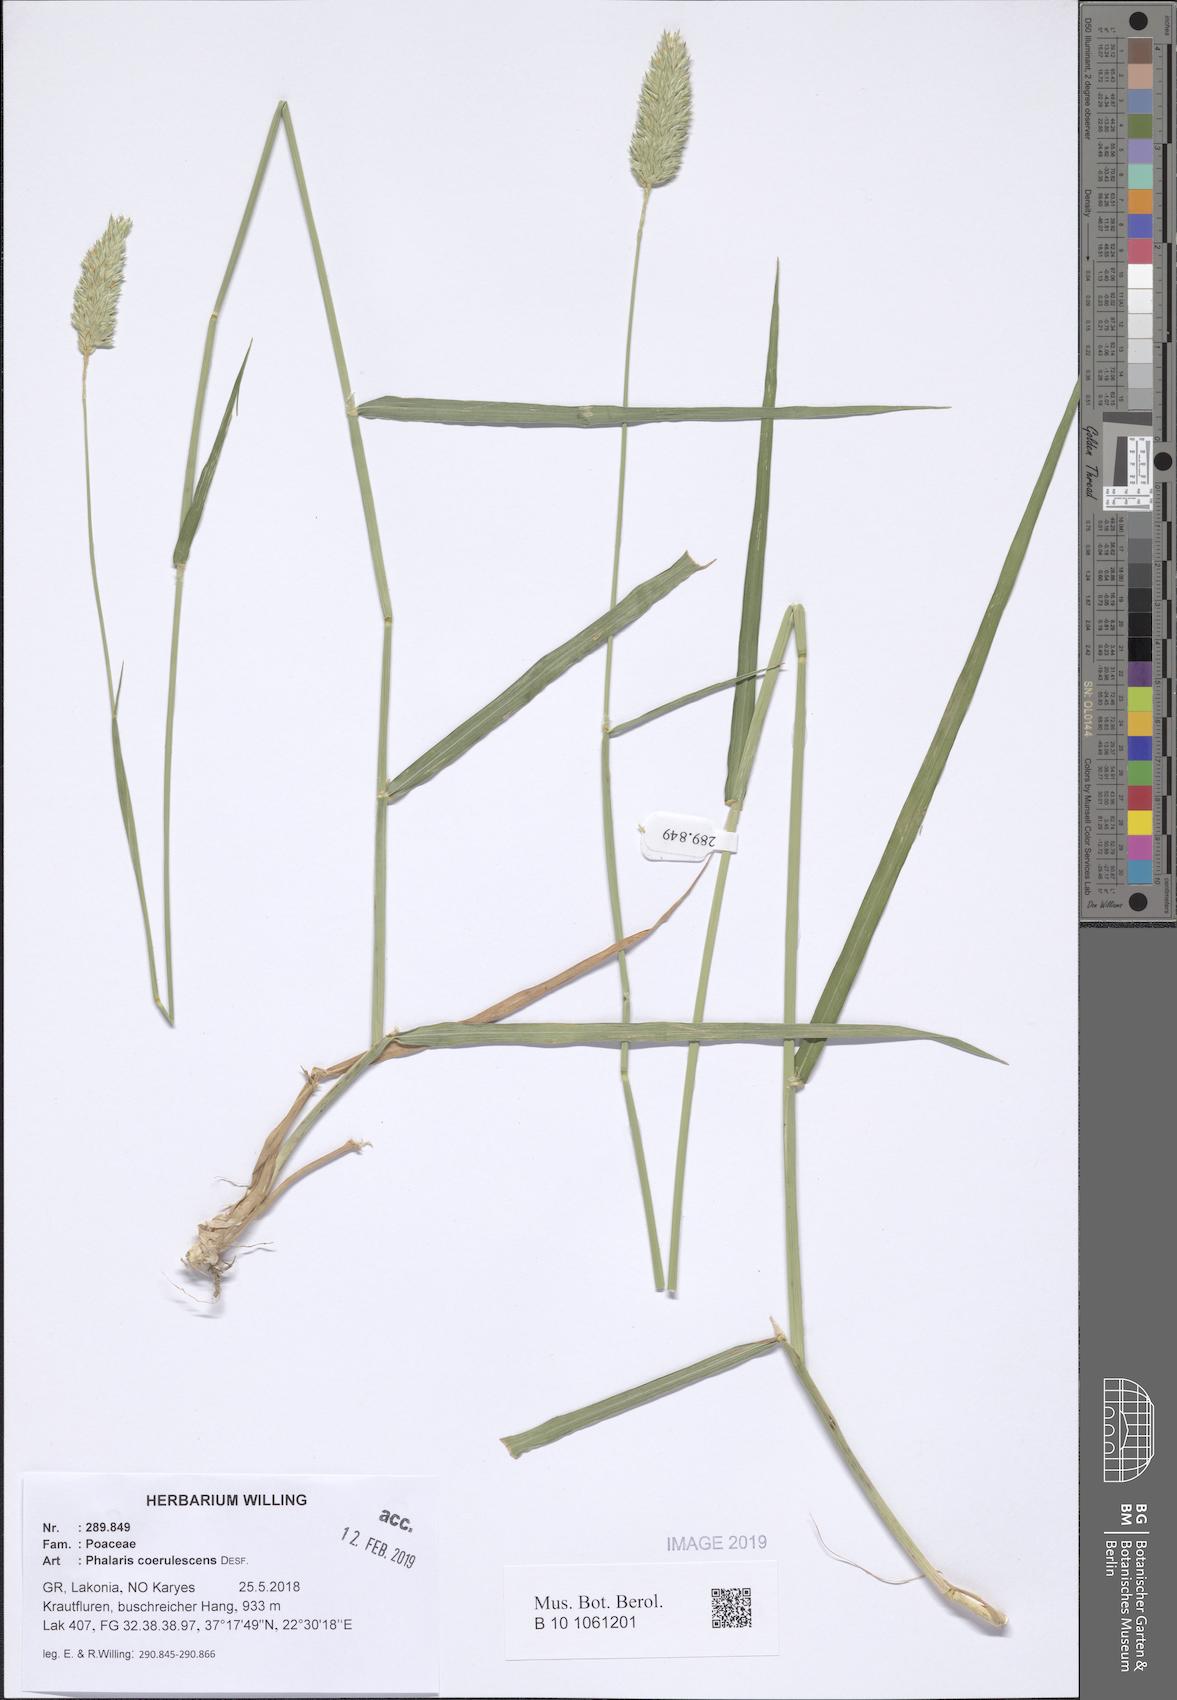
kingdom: Plantae
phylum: Tracheophyta
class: Liliopsida
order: Poales
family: Poaceae
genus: Phalaris
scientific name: Phalaris coerulescens
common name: Sunolgrass
